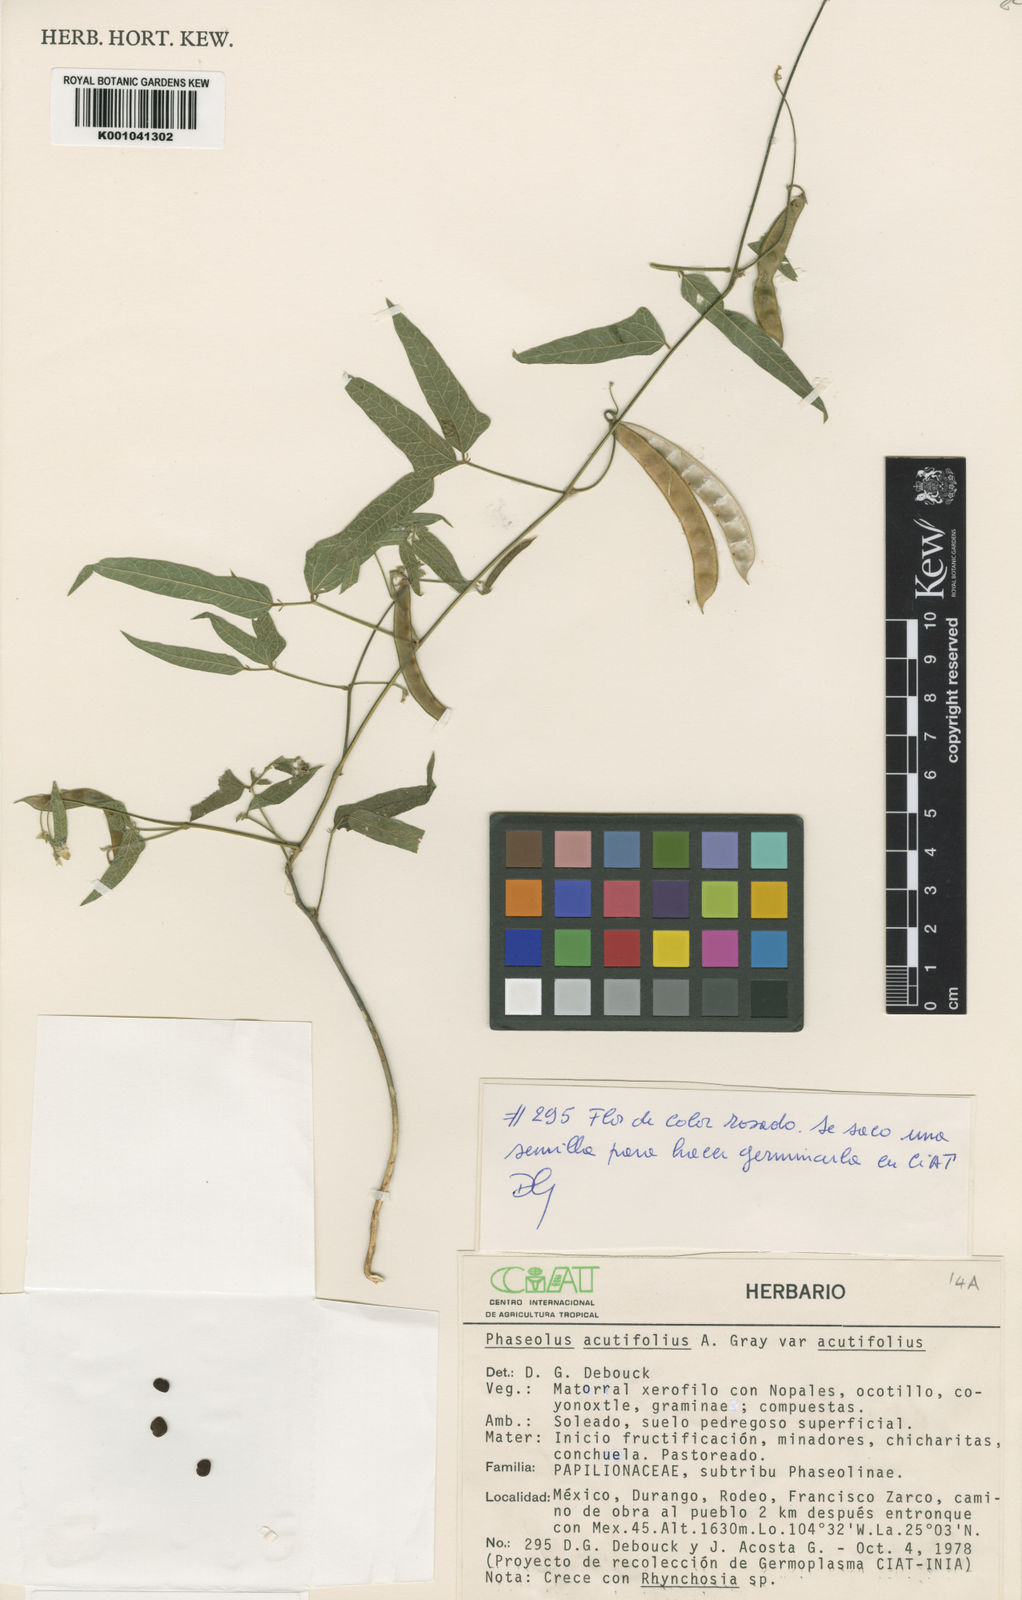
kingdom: Plantae
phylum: Tracheophyta
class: Magnoliopsida
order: Fabales
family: Fabaceae
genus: Phaseolus
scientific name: Phaseolus acutifolius
